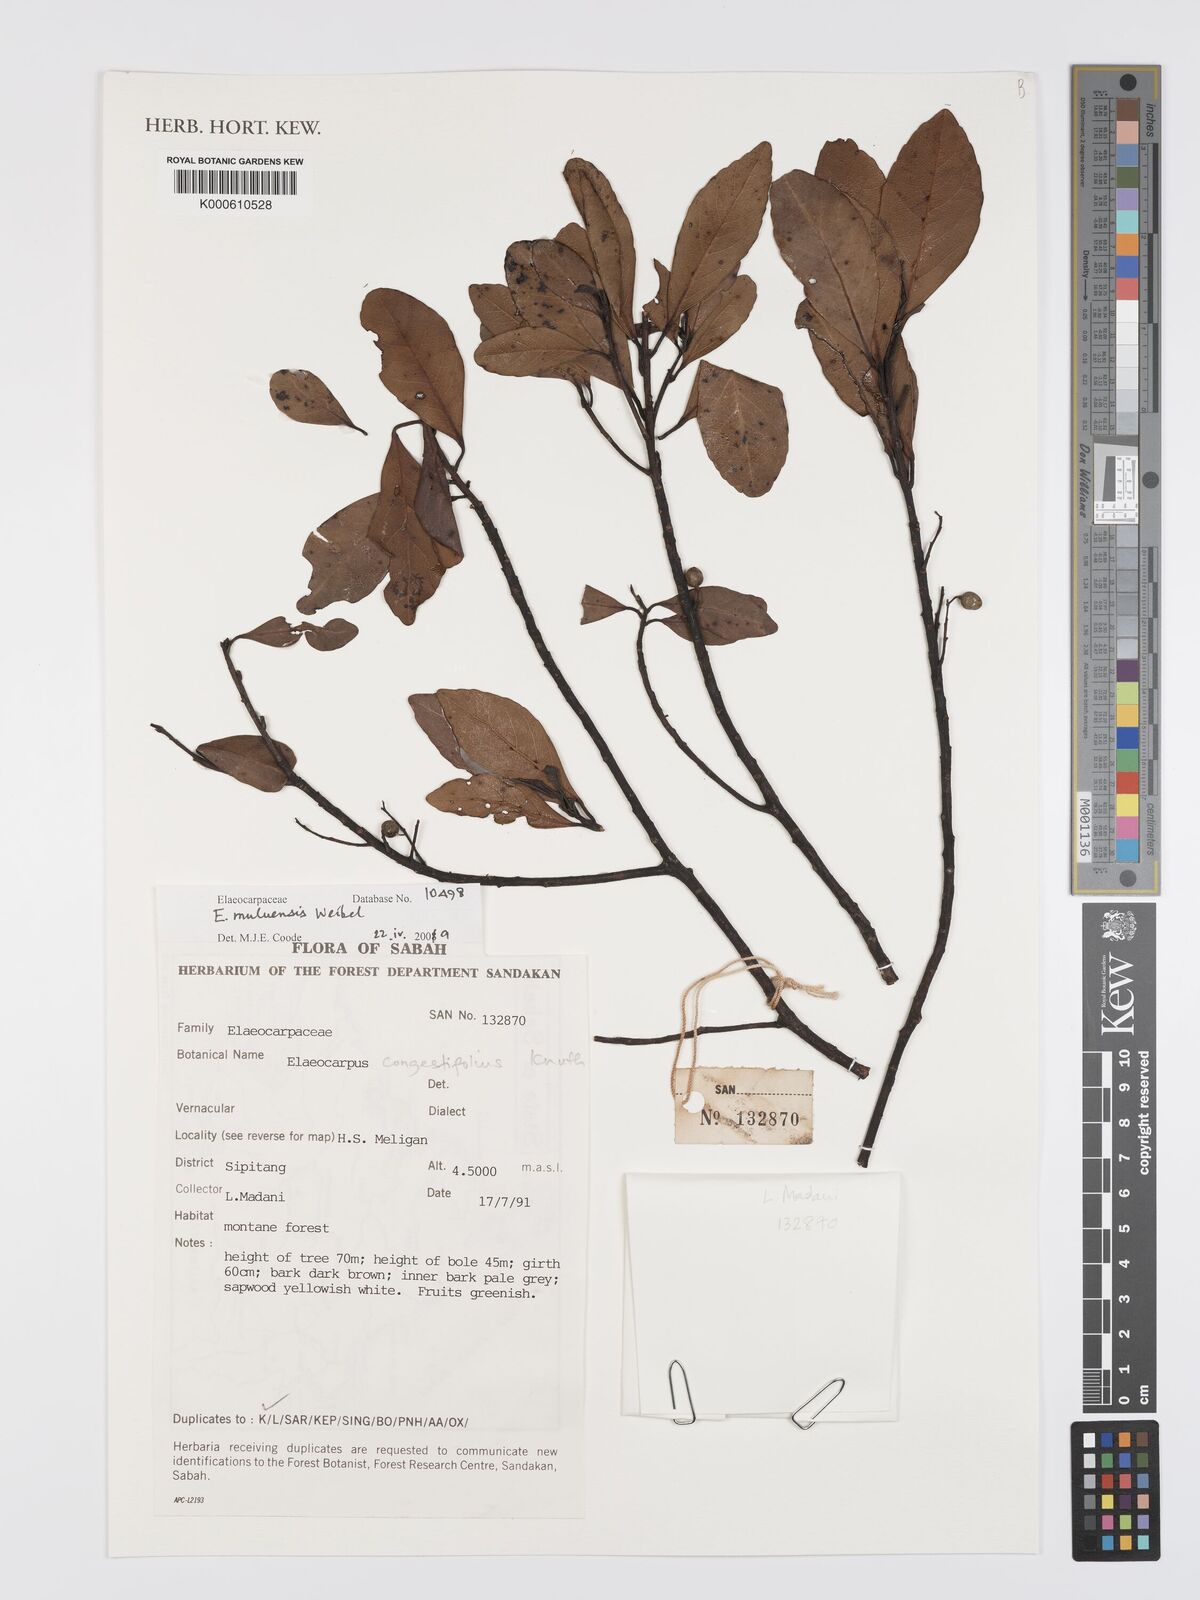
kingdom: Plantae
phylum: Tracheophyta
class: Magnoliopsida
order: Oxalidales
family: Elaeocarpaceae
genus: Elaeocarpus
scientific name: Elaeocarpus muluensis
